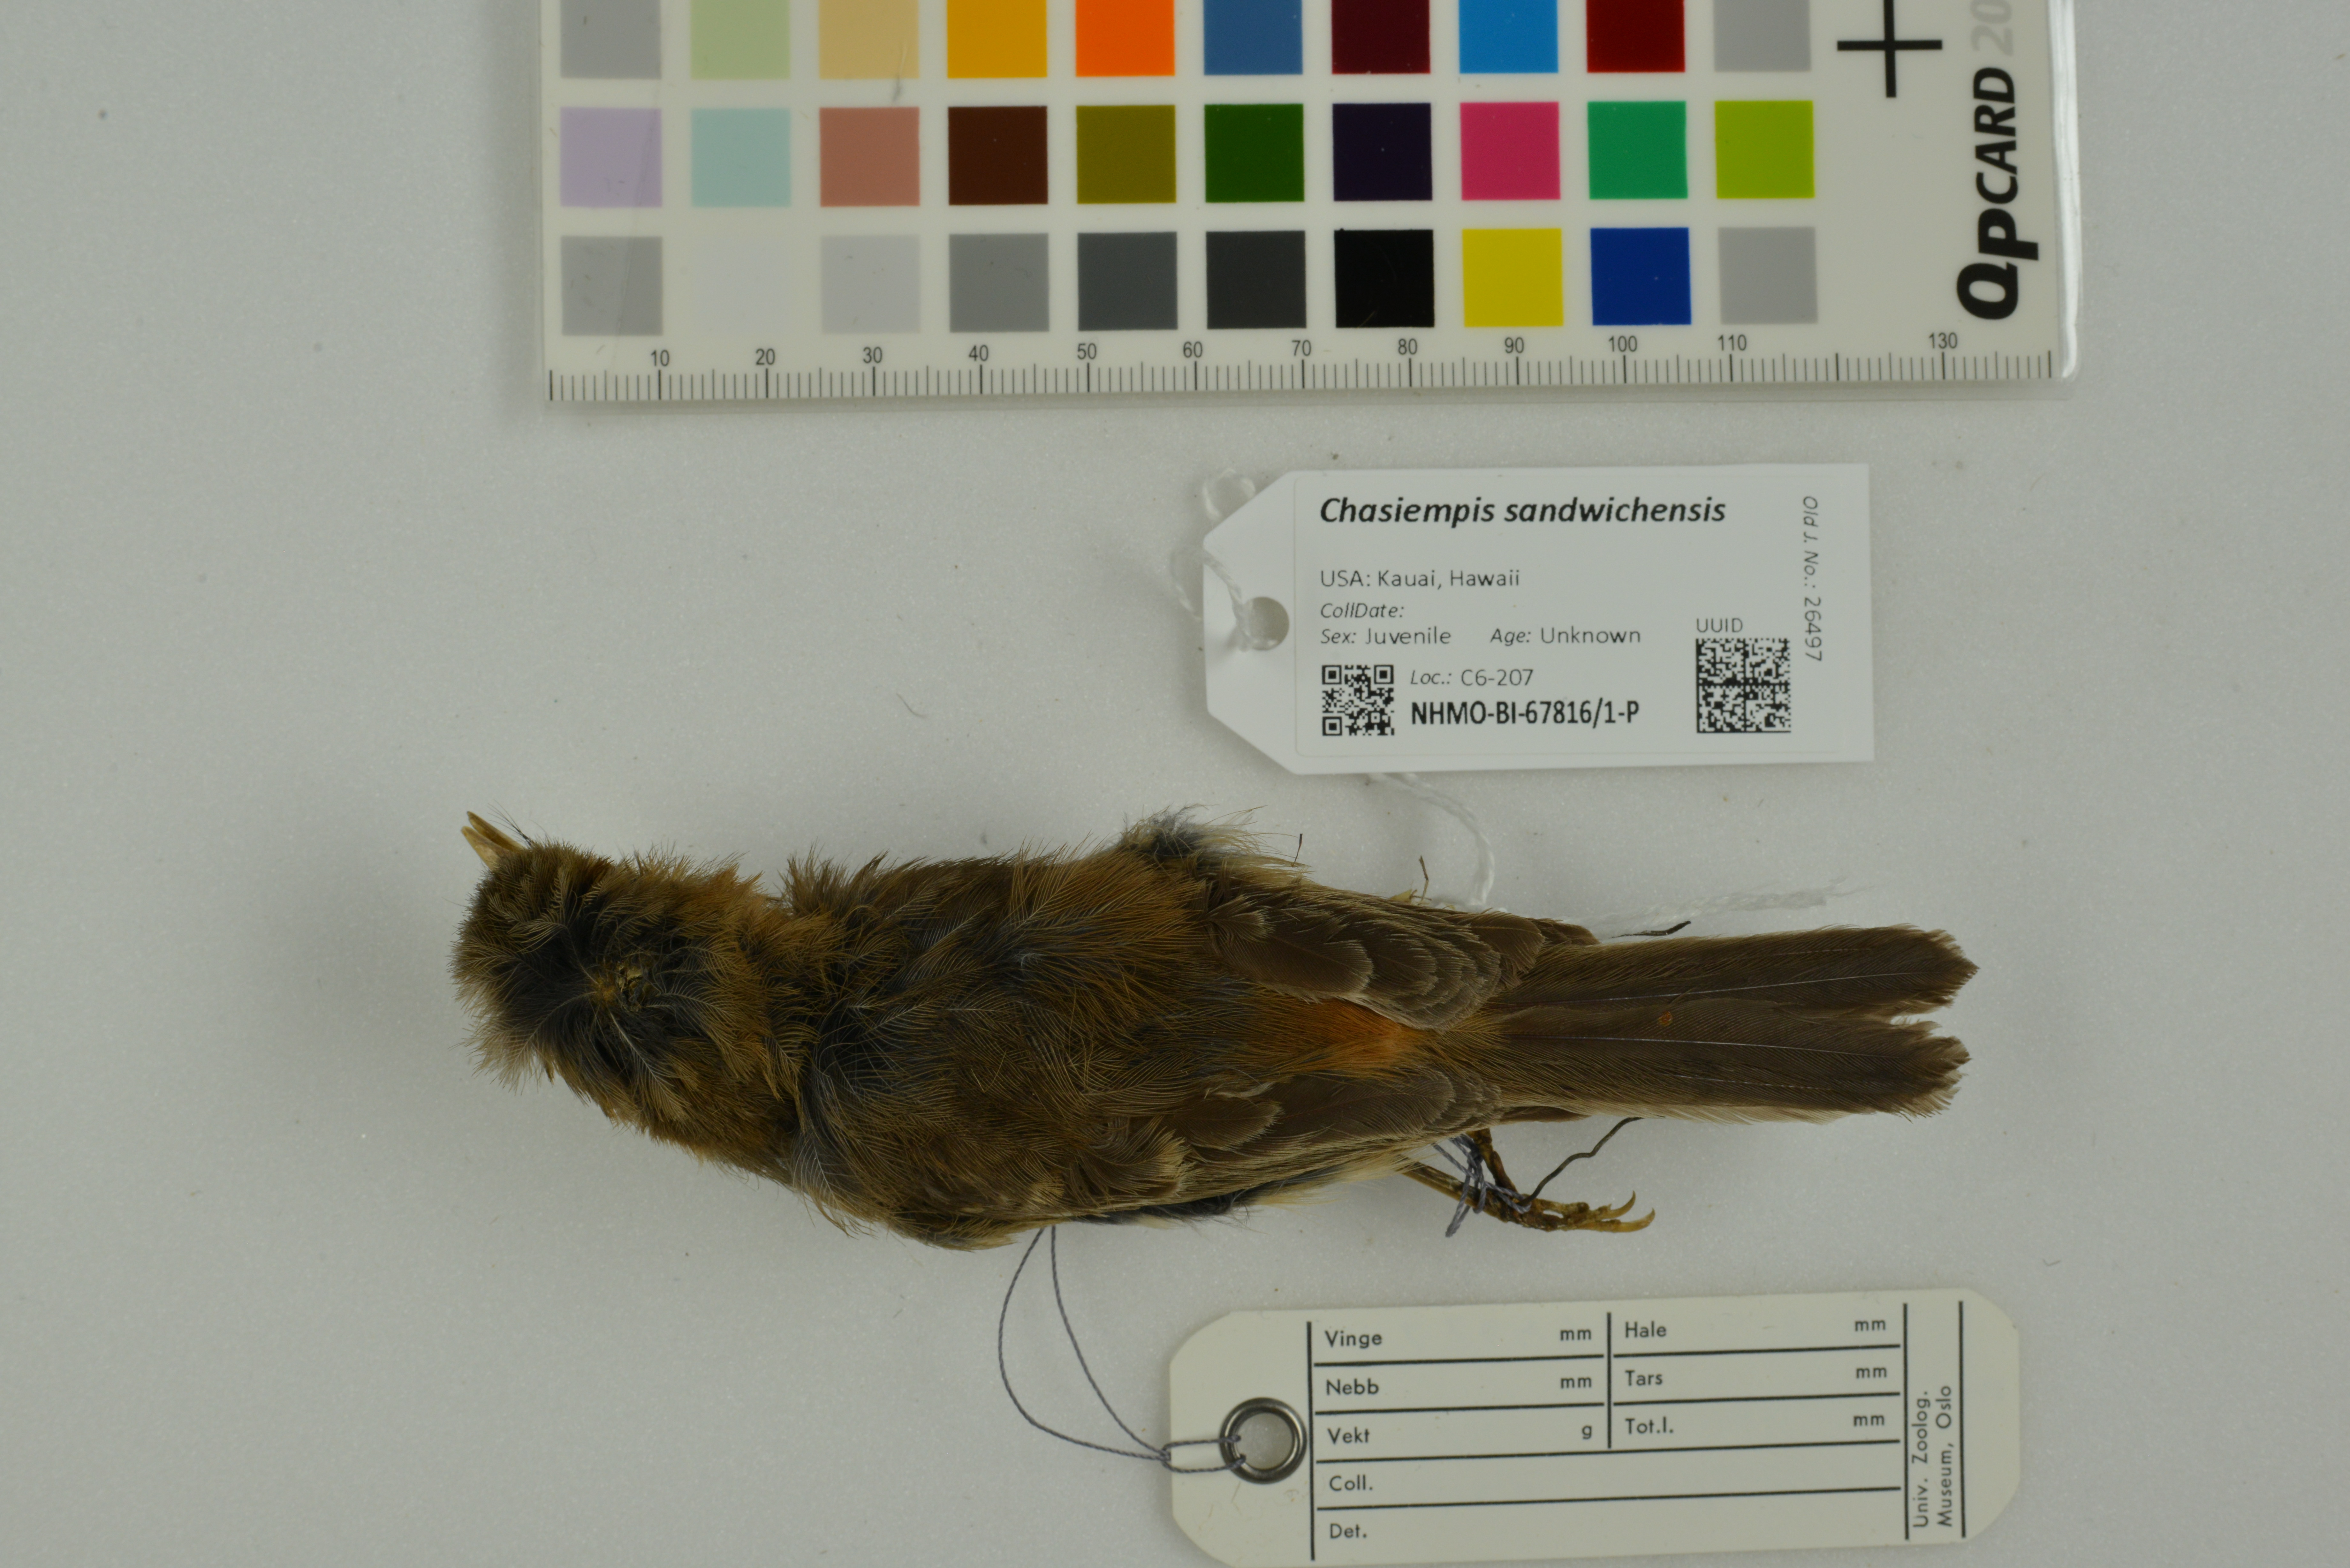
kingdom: Animalia
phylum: Chordata
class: Aves
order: Passeriformes
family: Monarchidae
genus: Chasiempis
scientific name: Chasiempis sandwichensis
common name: Hawaii elepaio
